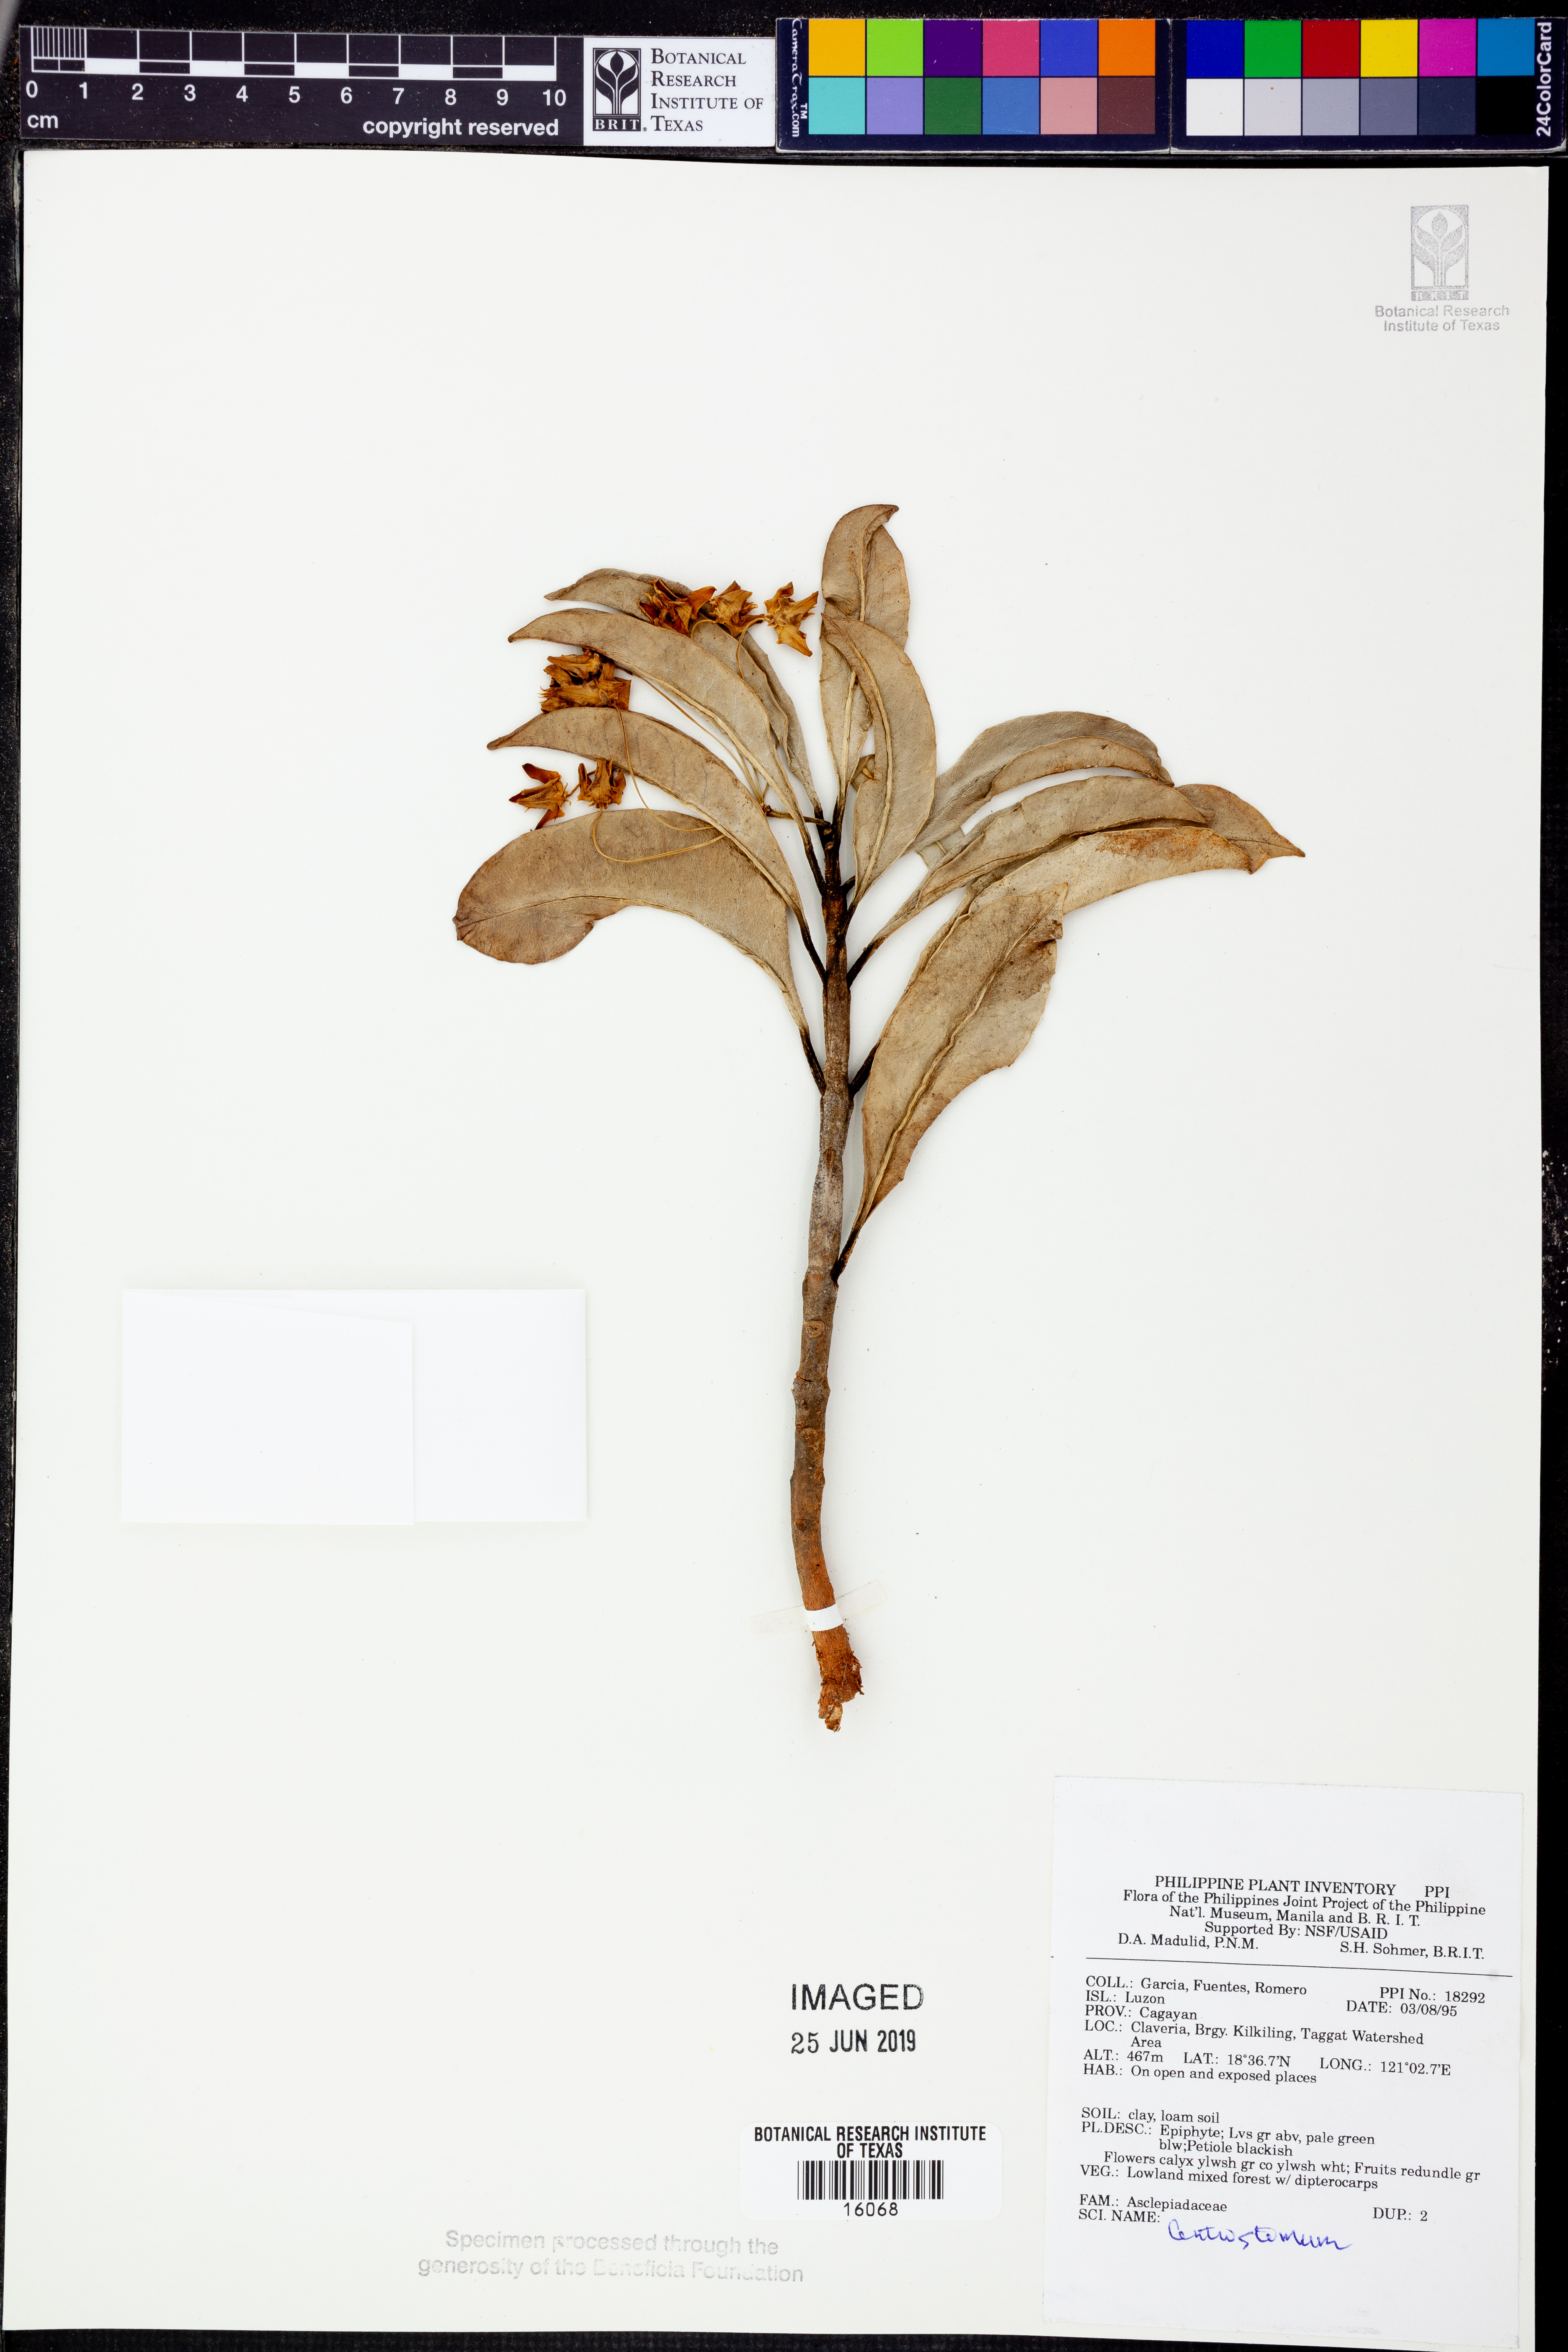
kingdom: Plantae
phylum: Tracheophyta
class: Magnoliopsida
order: Gentianales
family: Apocynaceae
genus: Hoya
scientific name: Hoya
